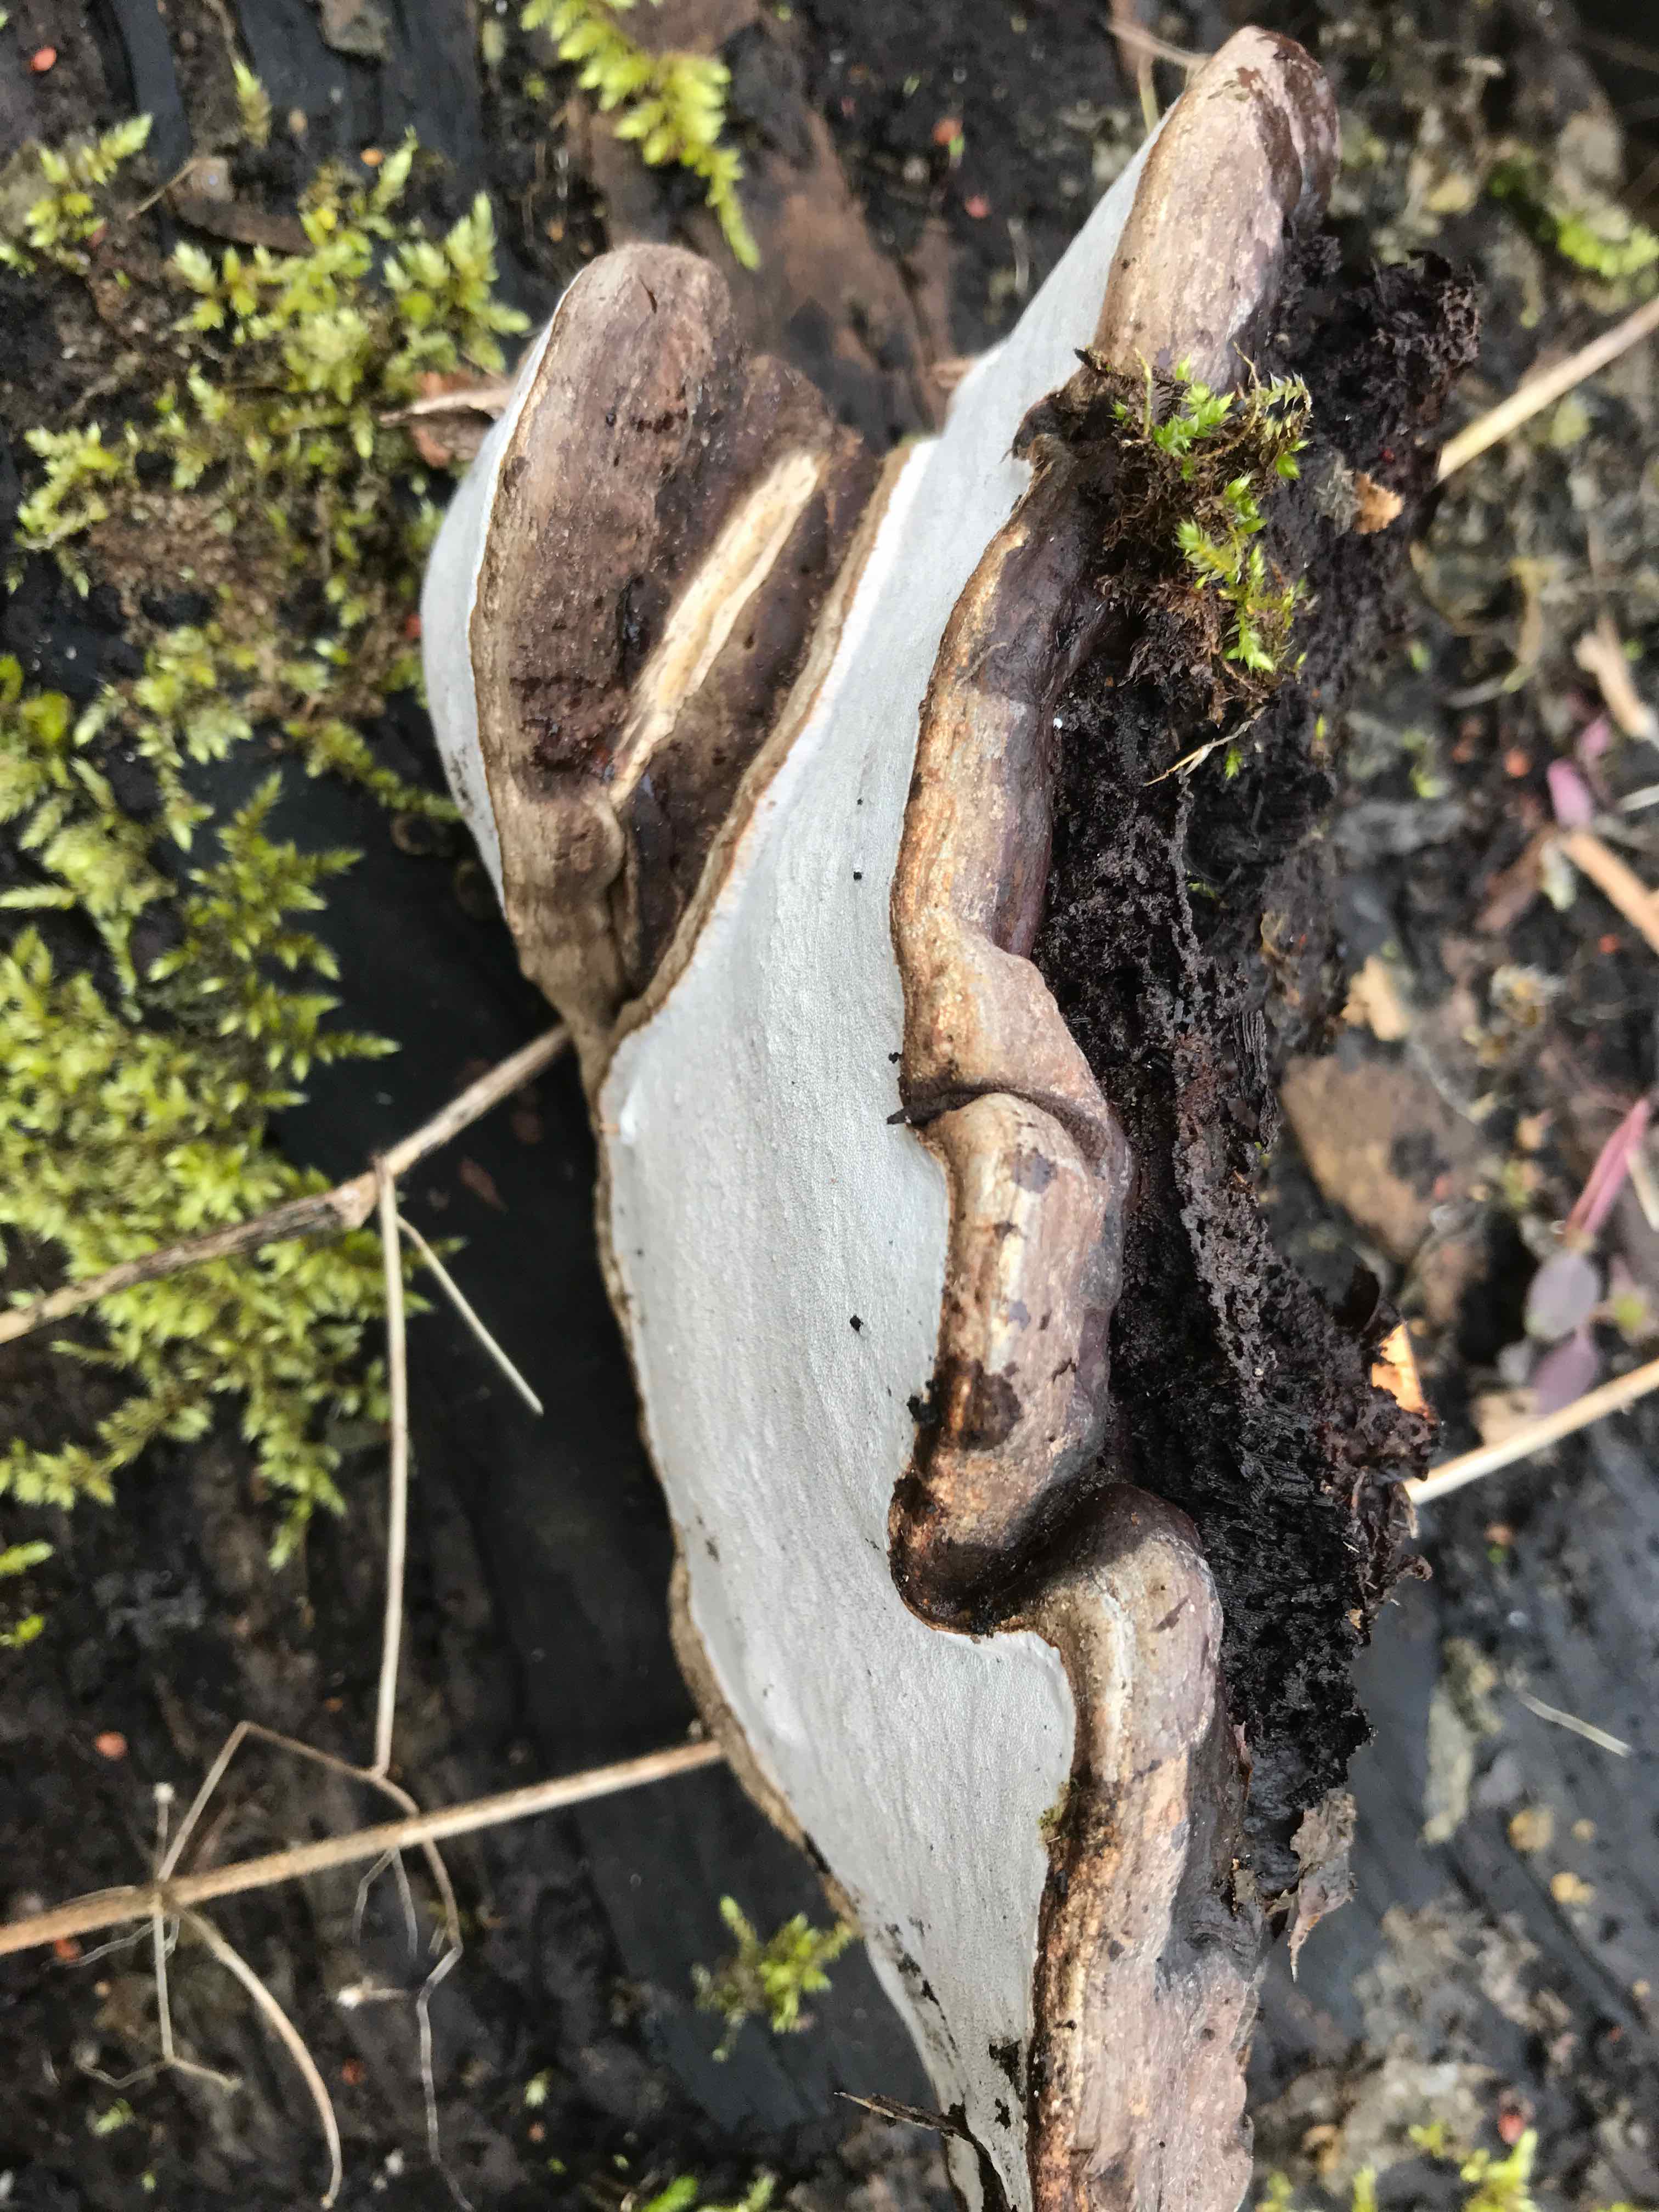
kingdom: Fungi
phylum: Basidiomycota
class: Agaricomycetes
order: Polyporales
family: Polyporaceae
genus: Ganoderma
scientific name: Ganoderma applanatum
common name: flad lakporesvamp
